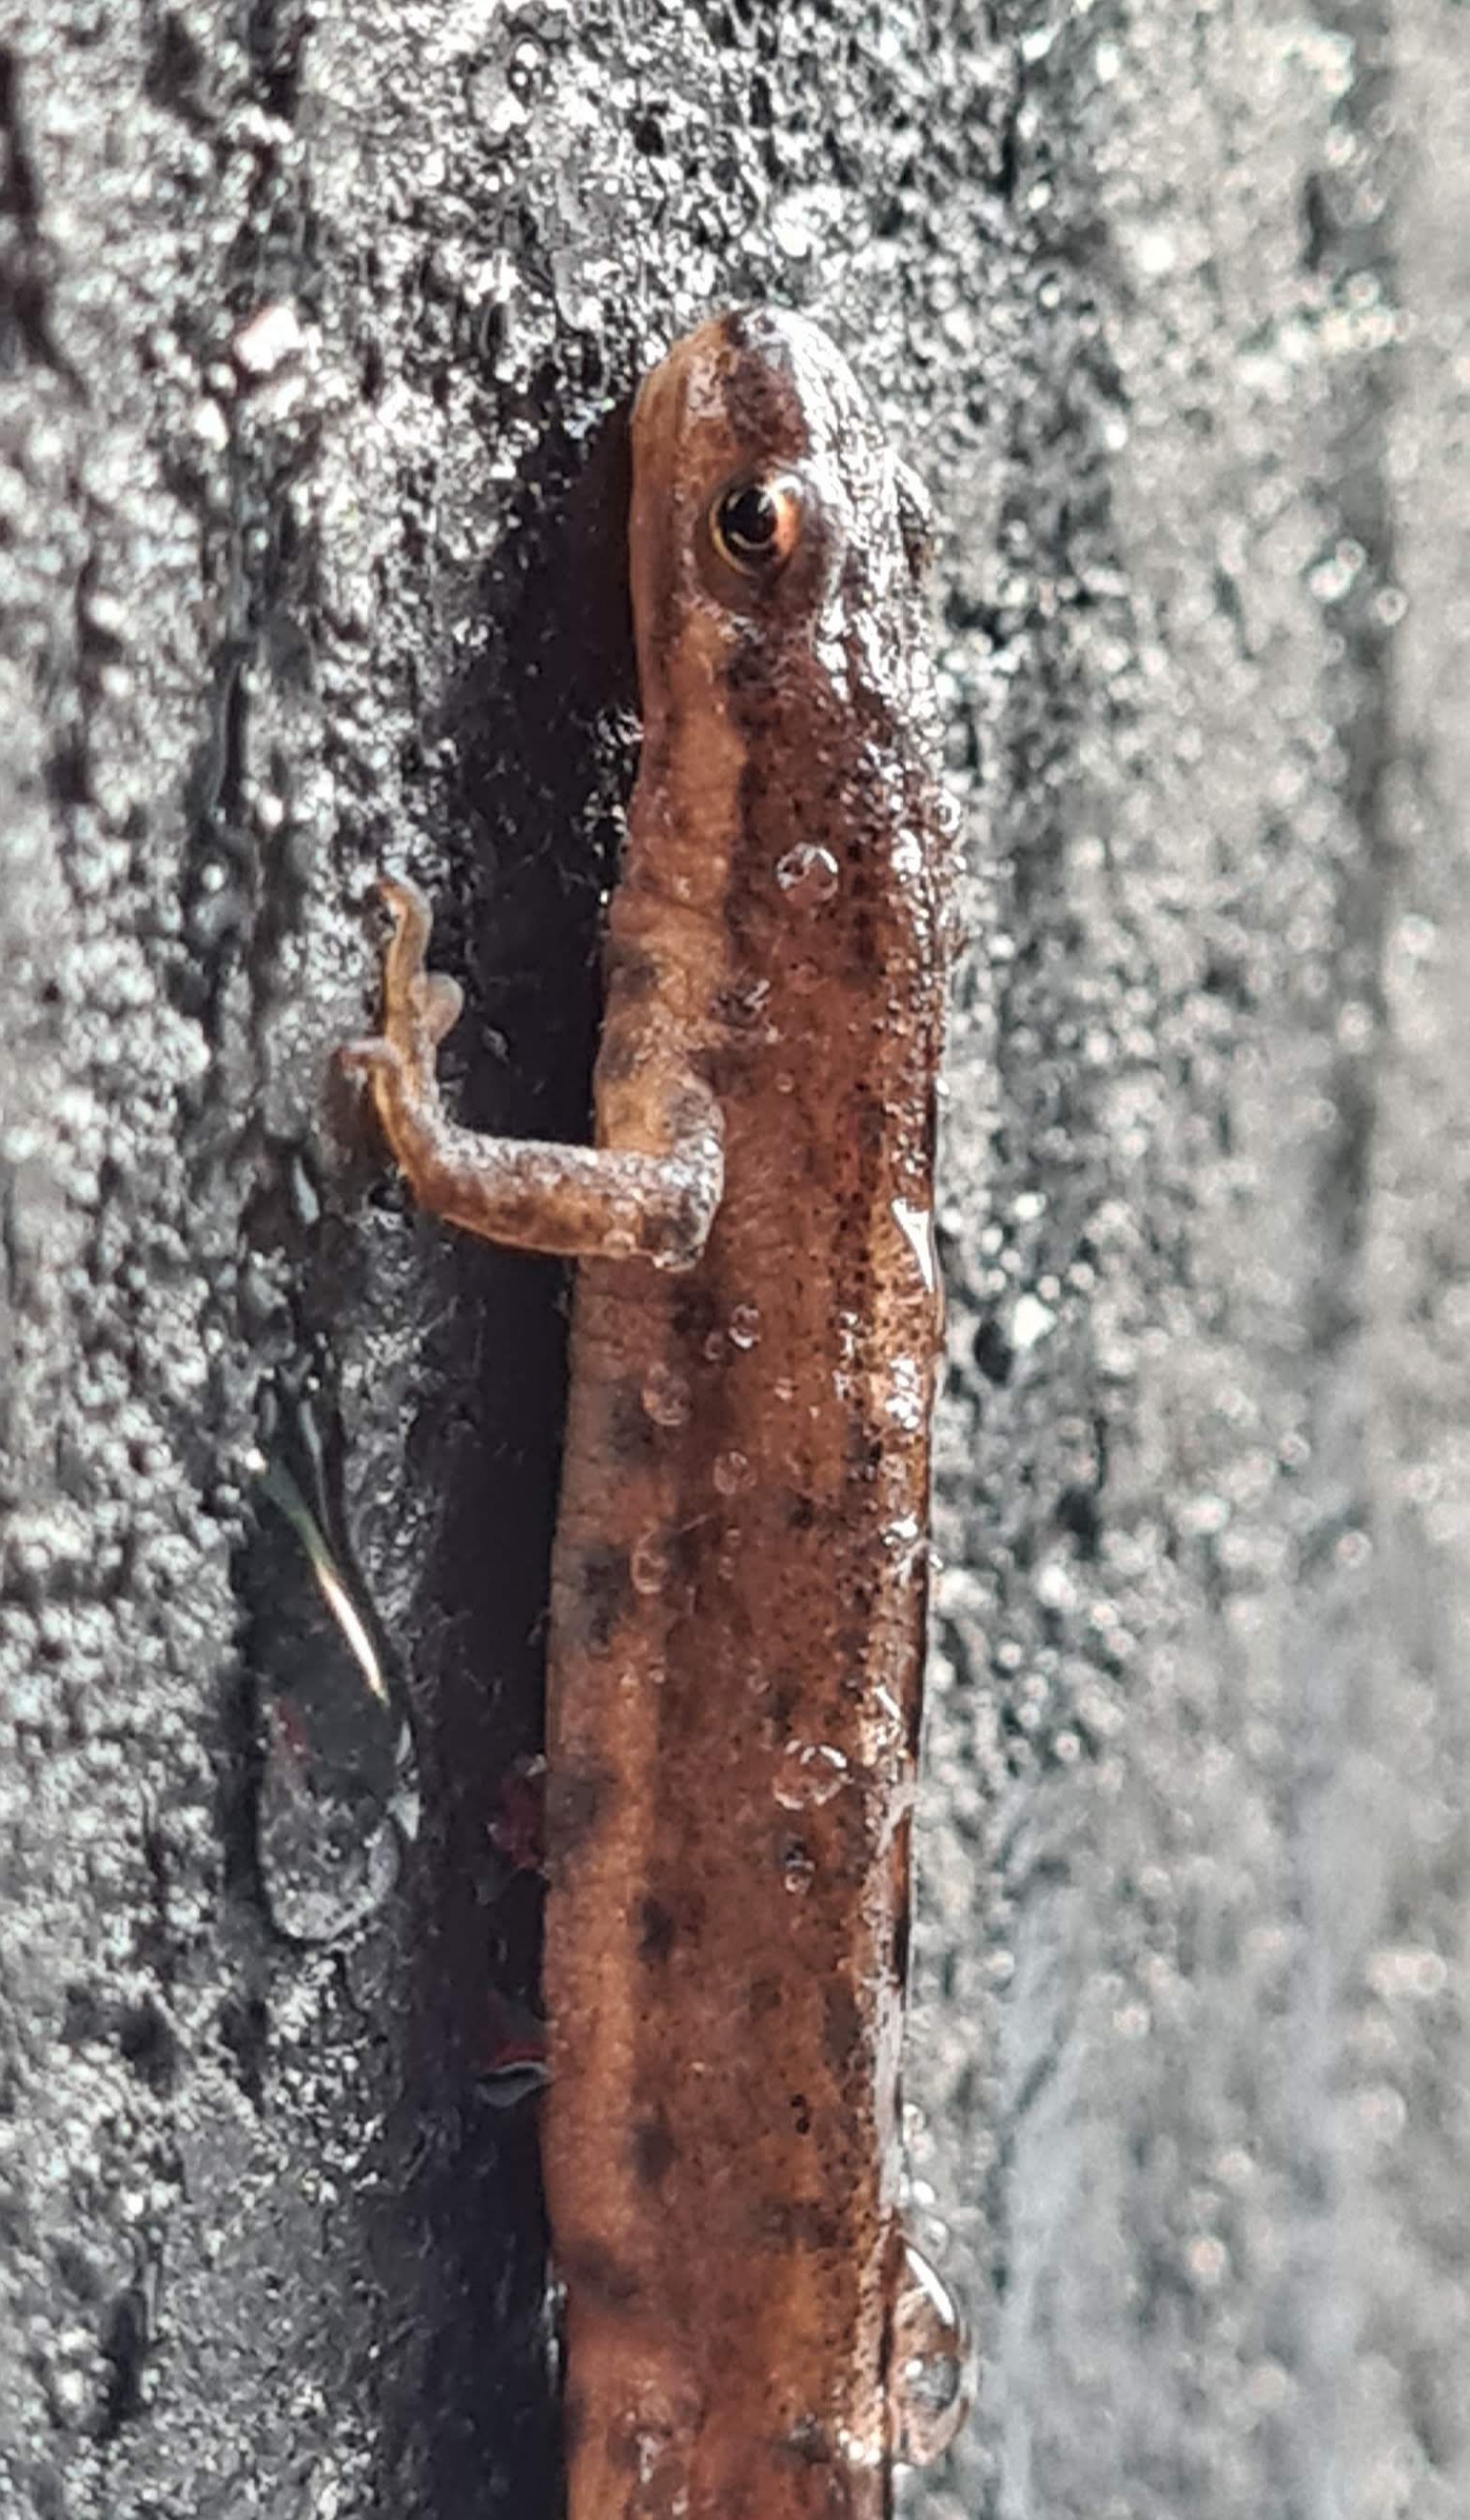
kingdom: Animalia
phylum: Chordata
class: Amphibia
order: Caudata
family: Salamandridae
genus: Lissotriton
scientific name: Lissotriton vulgaris
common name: Lille vandsalamander
